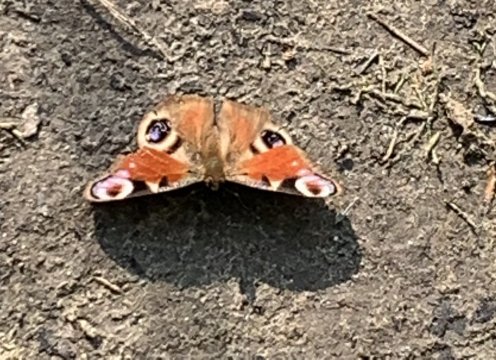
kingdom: Animalia
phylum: Arthropoda
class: Insecta
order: Lepidoptera
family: Nymphalidae
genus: Aglais
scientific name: Aglais io
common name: European Peacock
